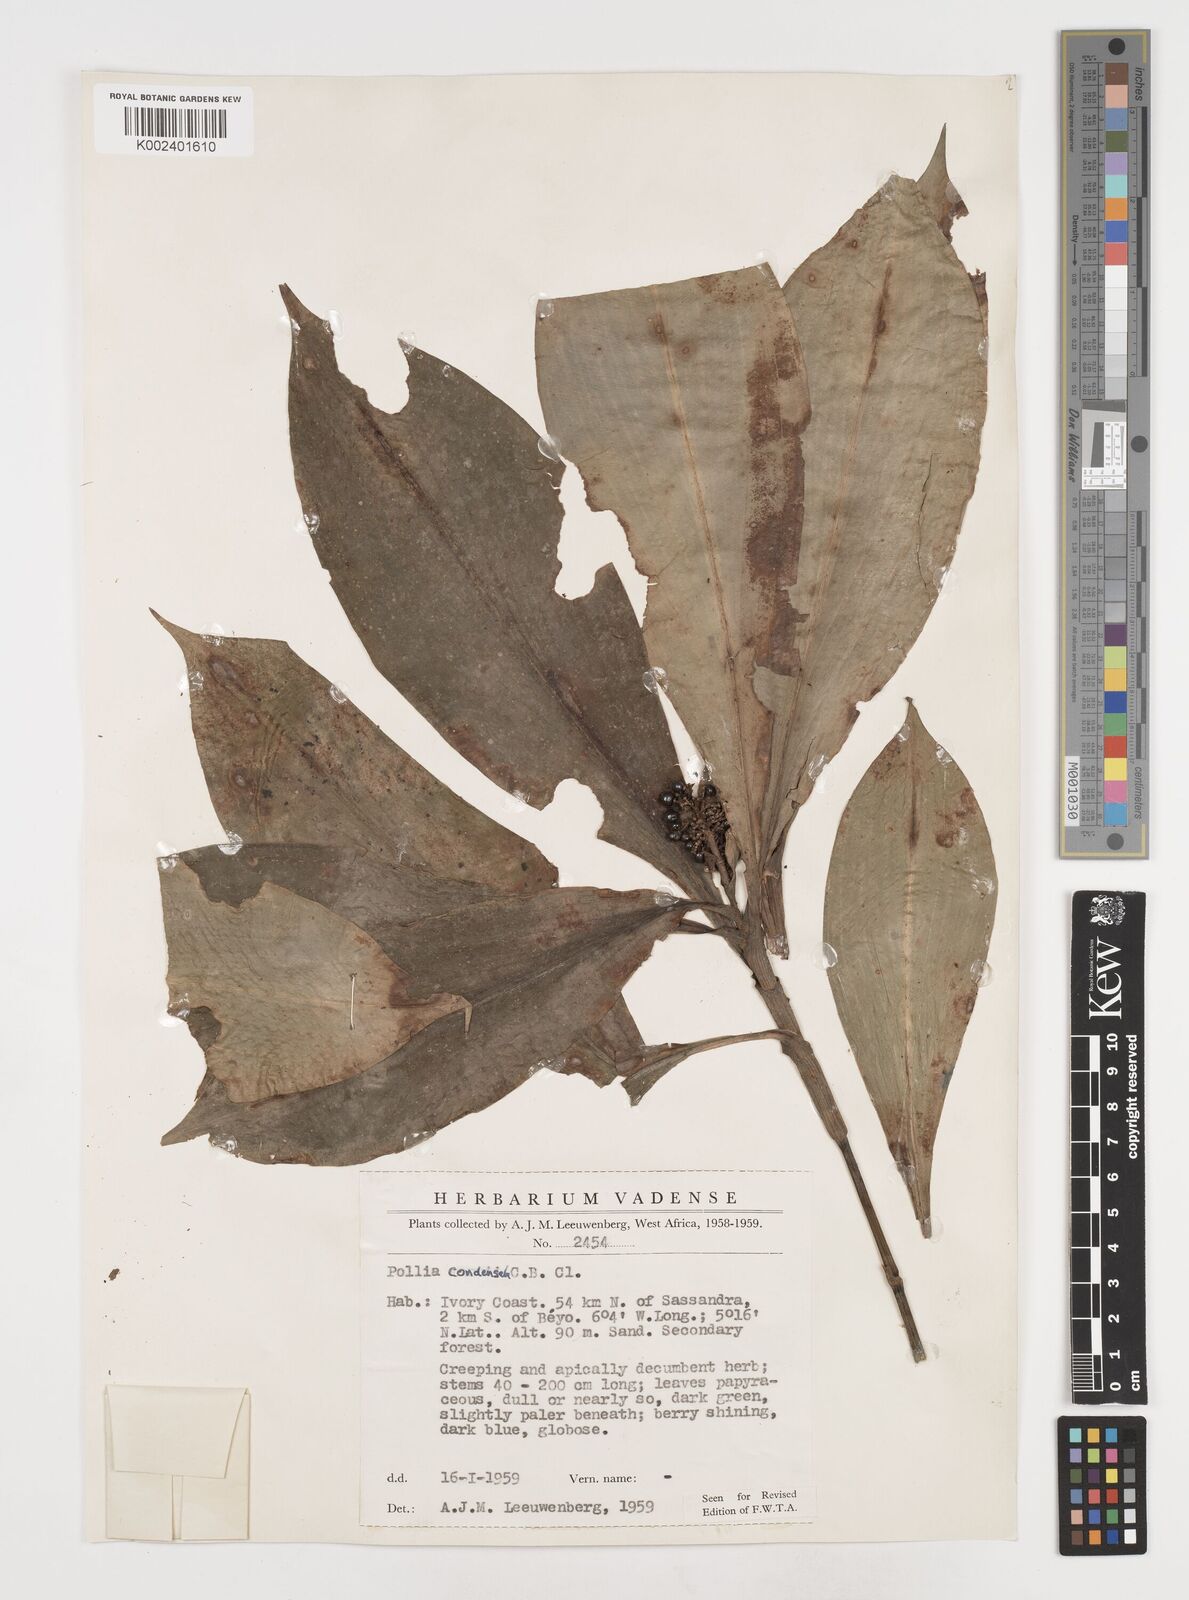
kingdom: Plantae
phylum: Tracheophyta
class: Liliopsida
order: Commelinales
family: Commelinaceae
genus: Pollia
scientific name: Pollia condensata
